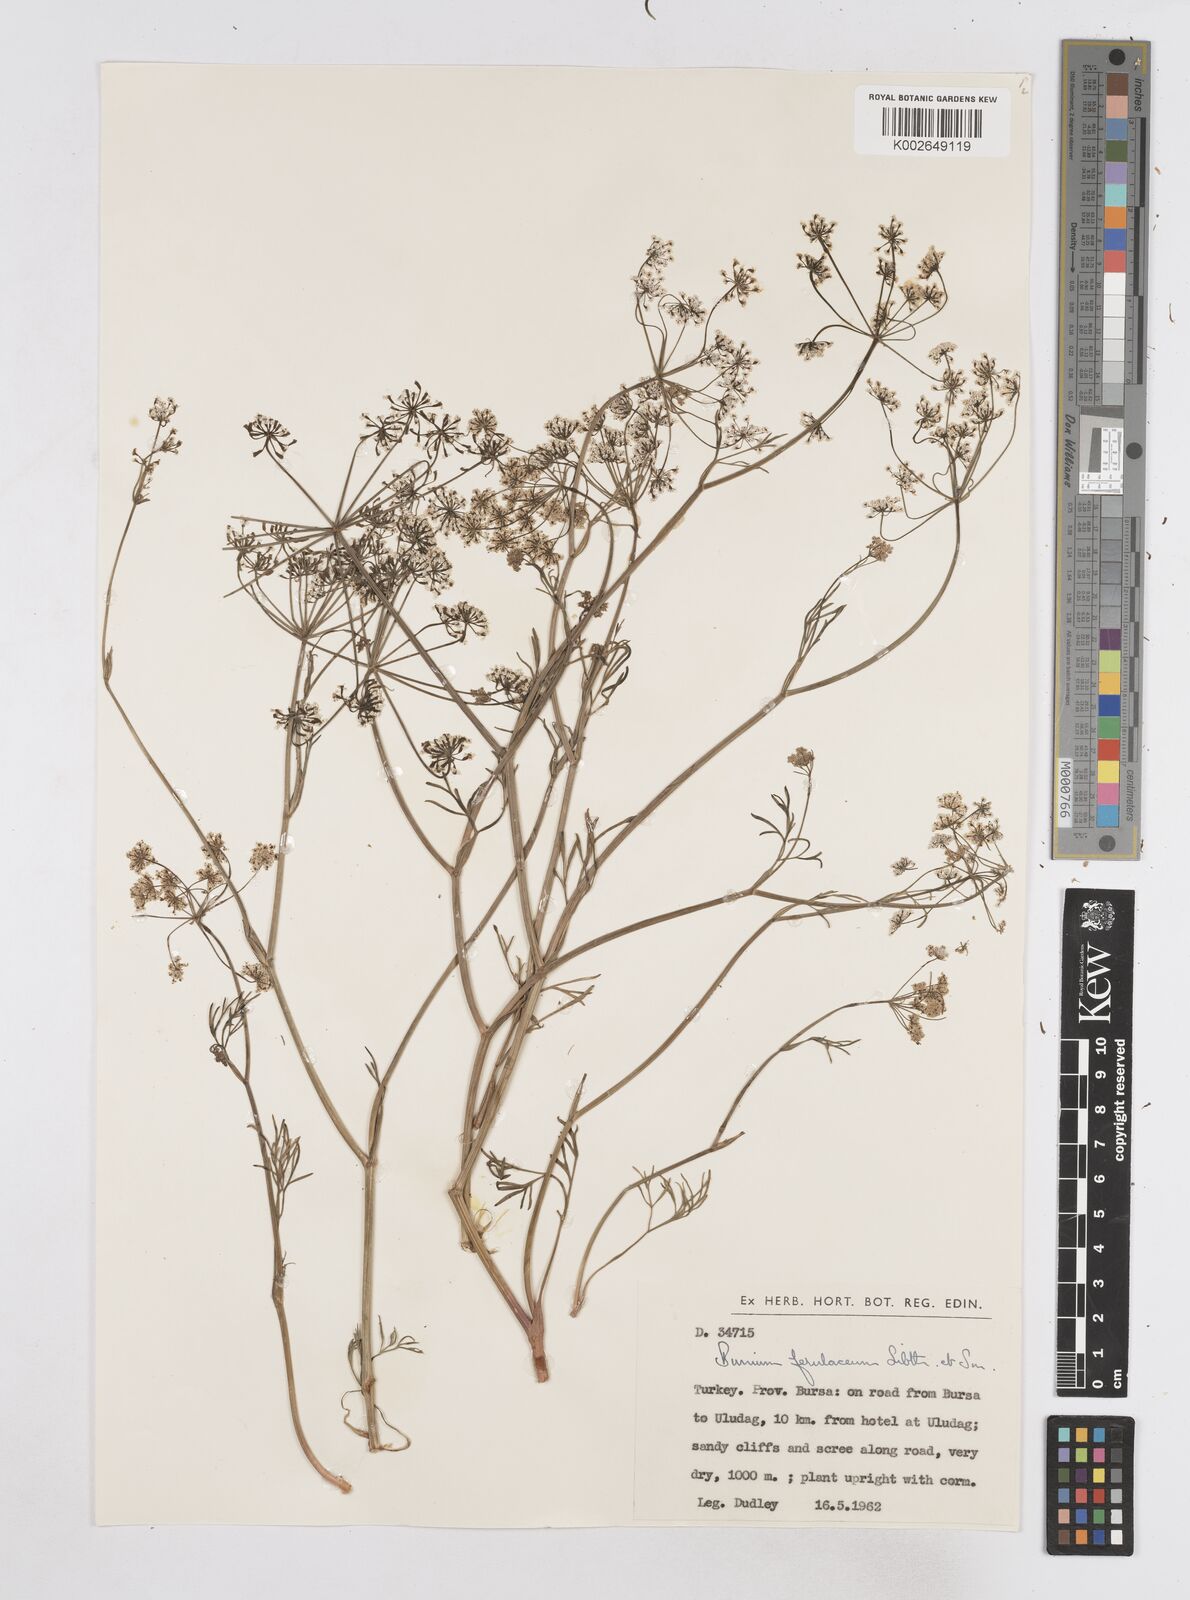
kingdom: Plantae
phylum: Tracheophyta
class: Magnoliopsida
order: Apiales
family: Apiaceae
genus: Bunium
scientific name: Bunium ferulaceum
